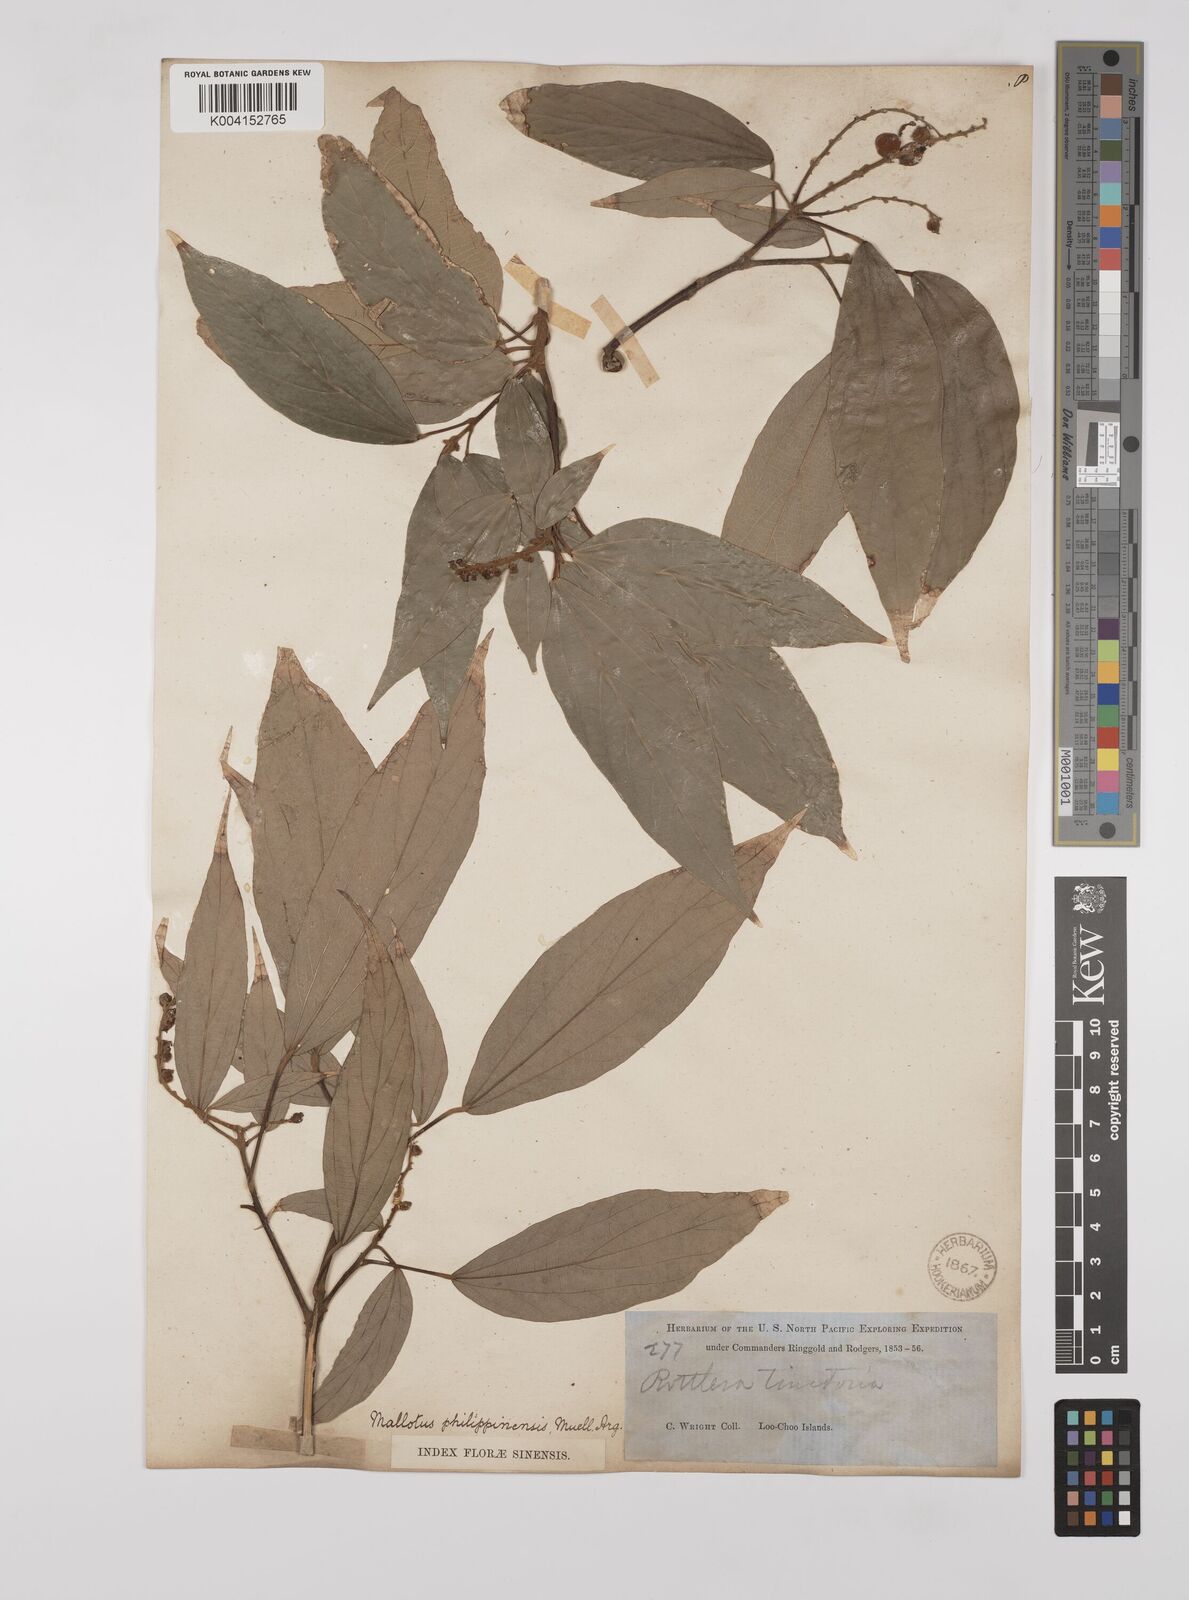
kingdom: Plantae
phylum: Tracheophyta
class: Magnoliopsida
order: Malpighiales
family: Euphorbiaceae
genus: Mallotus
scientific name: Mallotus philippensis
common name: Kamala tree
